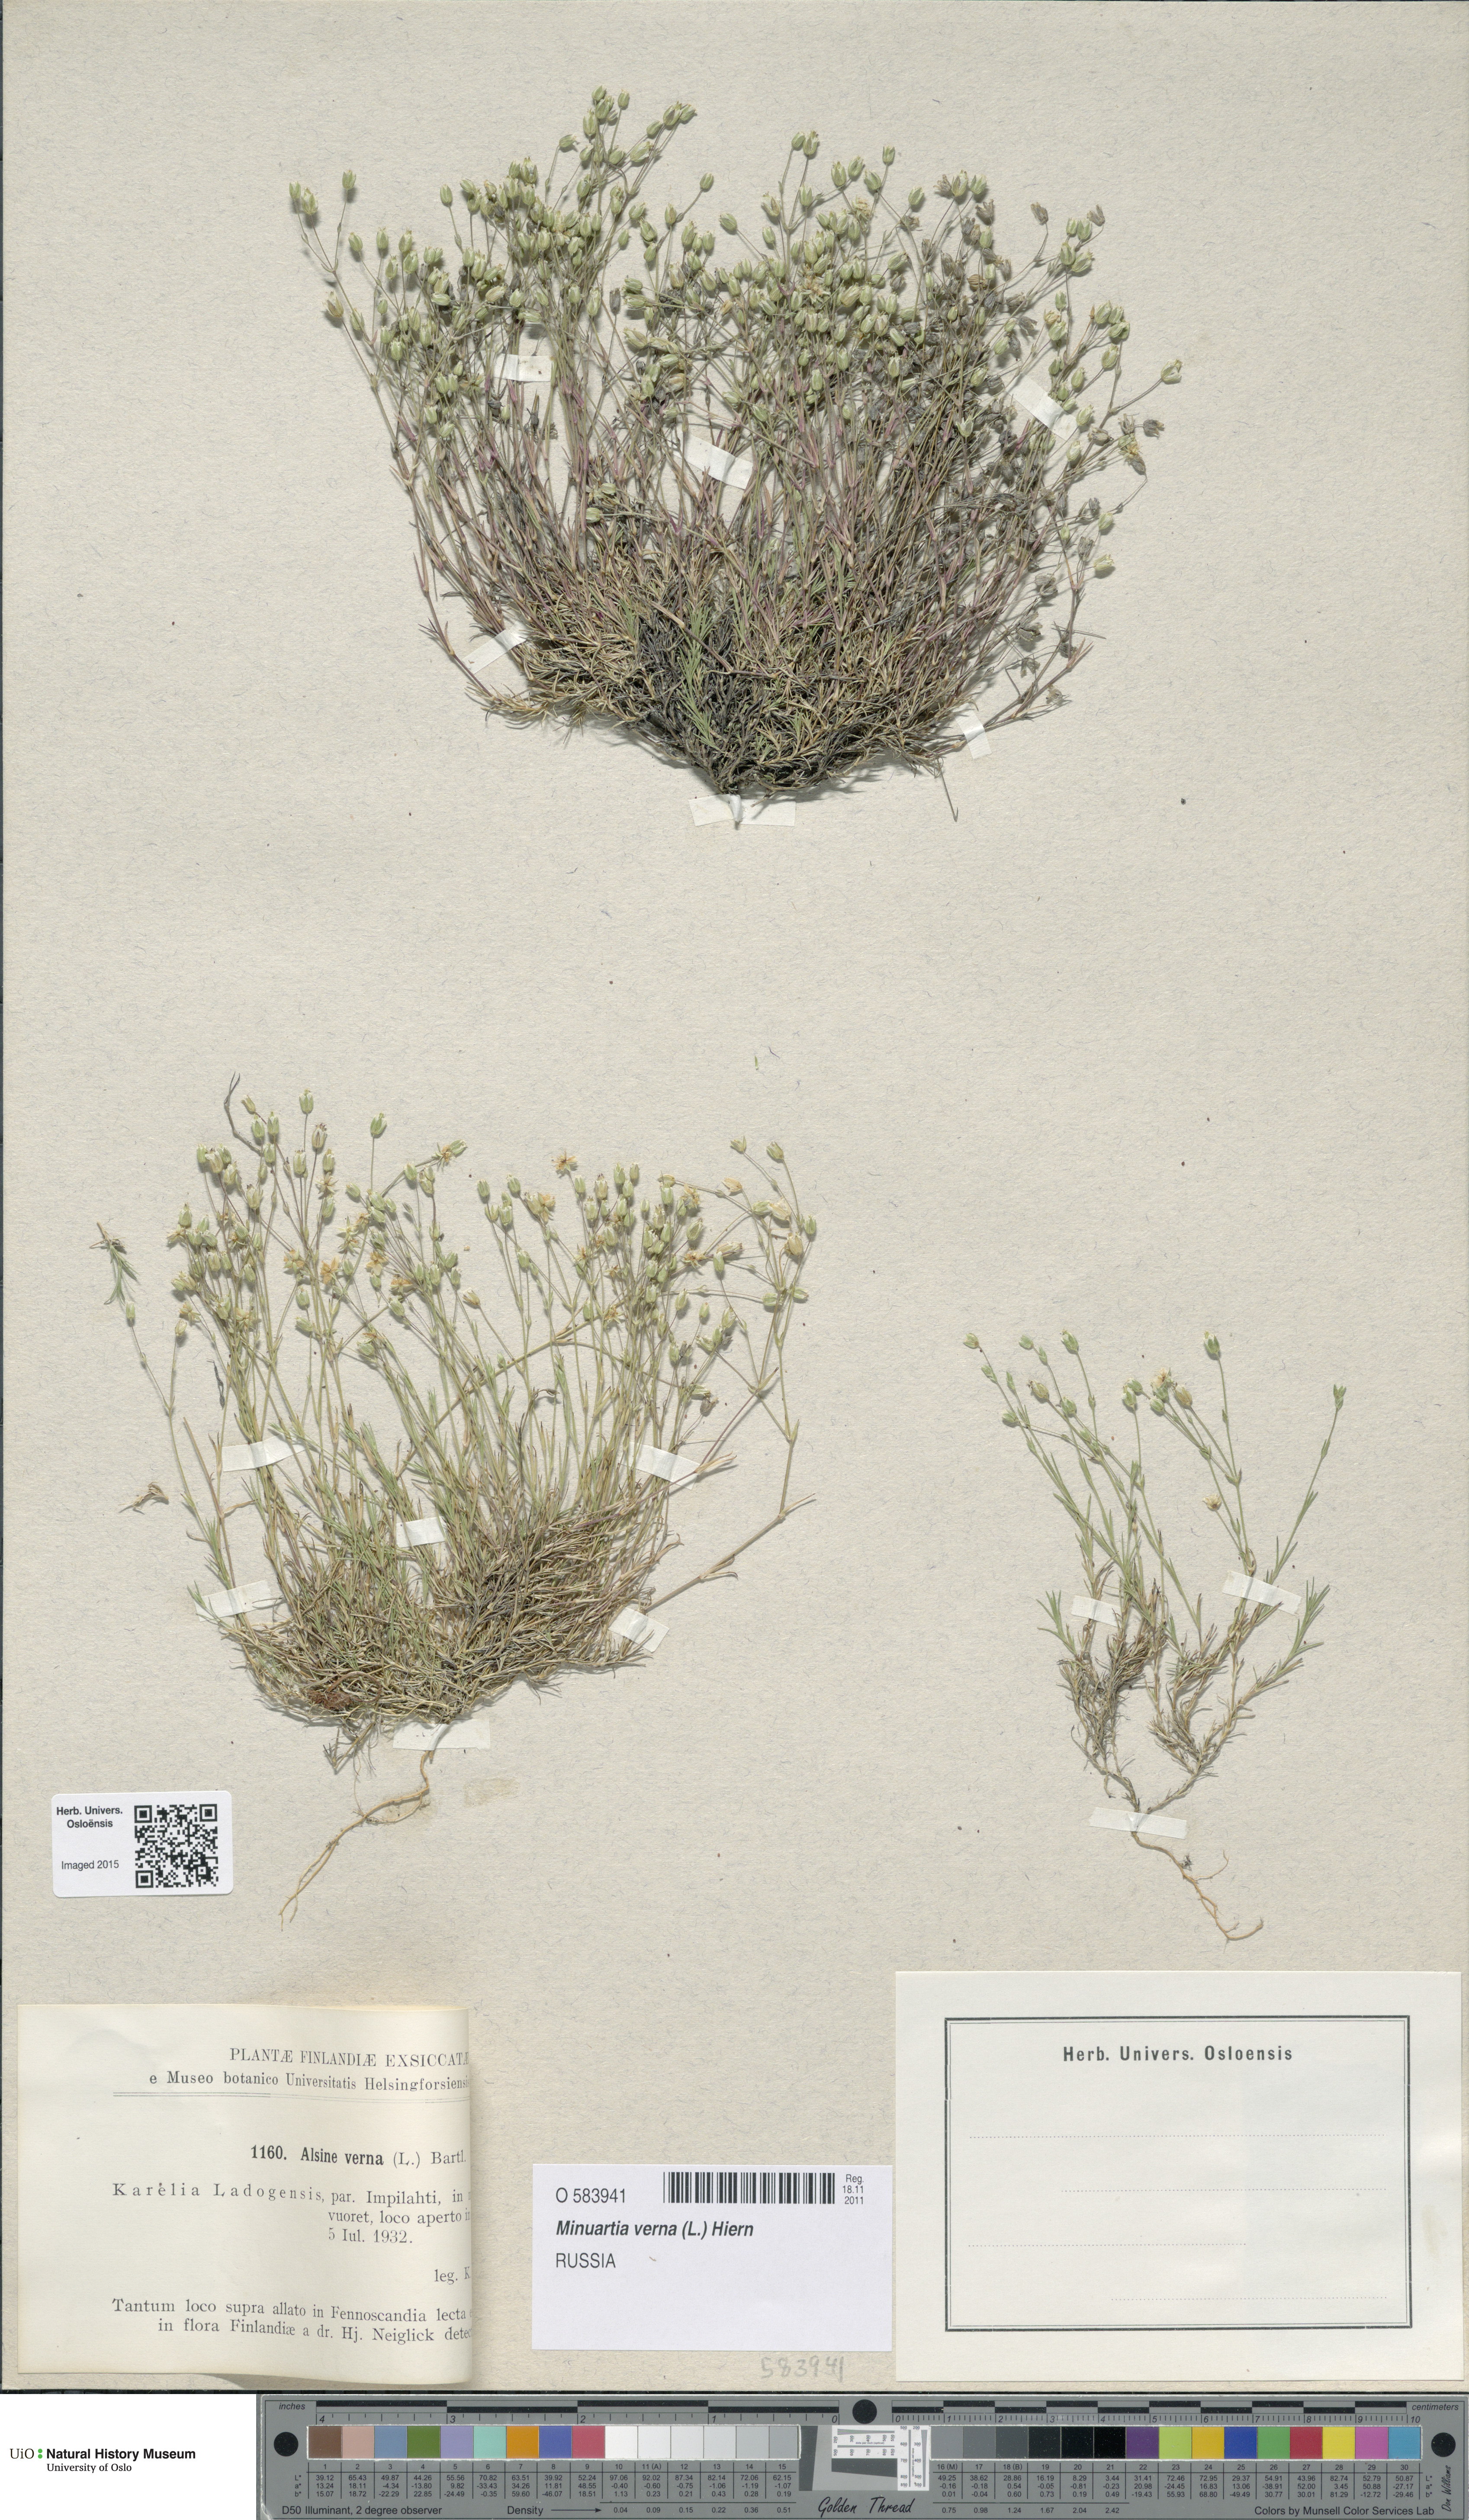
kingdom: Plantae
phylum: Tracheophyta
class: Magnoliopsida
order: Caryophyllales
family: Caryophyllaceae
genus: Sabulina
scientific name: Sabulina verna
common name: Spring sandwort
